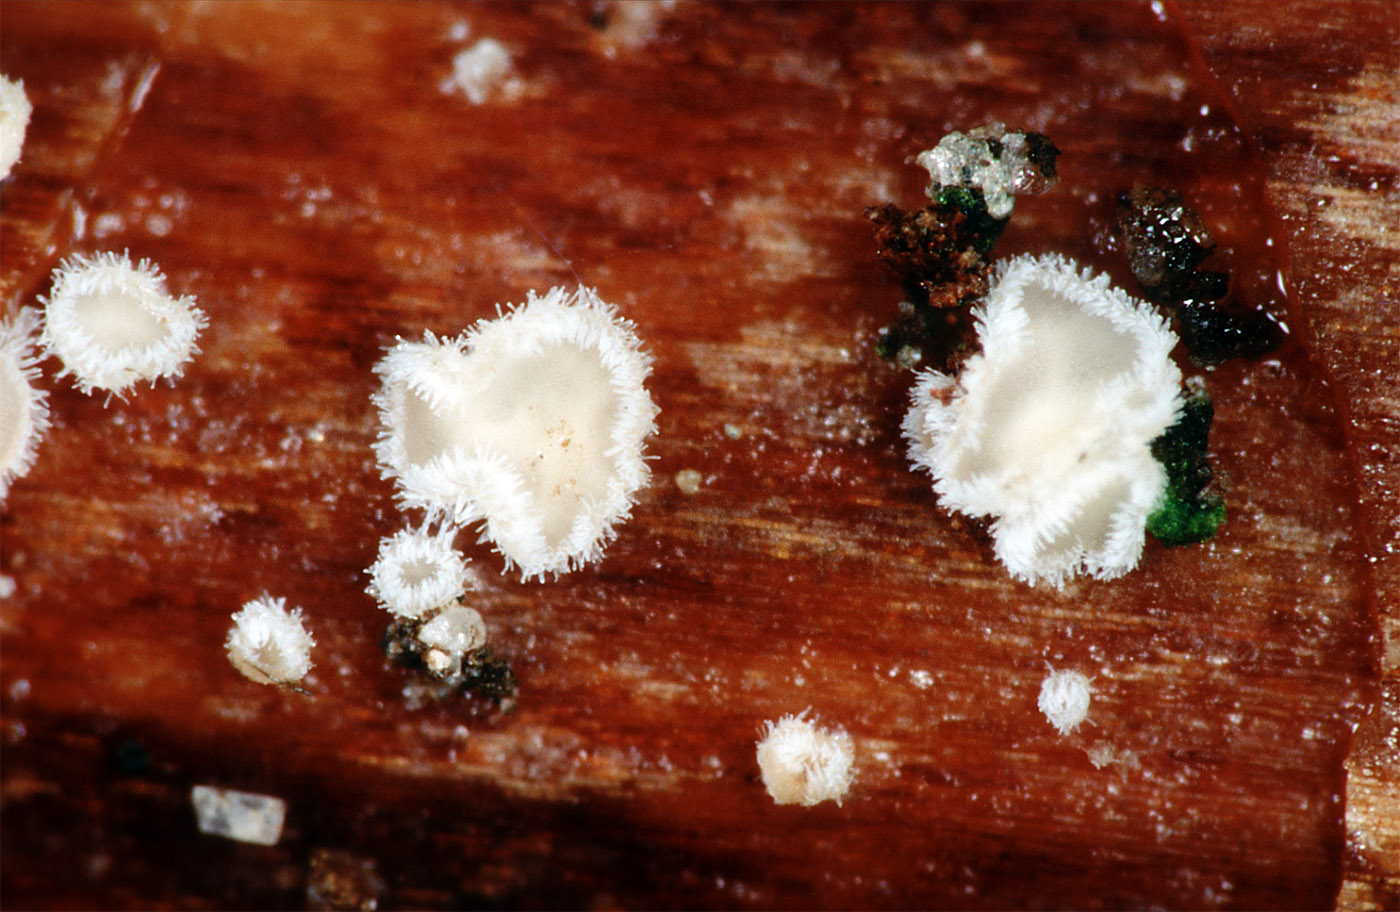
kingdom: Fungi
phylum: Ascomycota
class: Leotiomycetes
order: Helotiales
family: Lachnaceae
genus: Lachnum
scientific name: Lachnum eburneum
